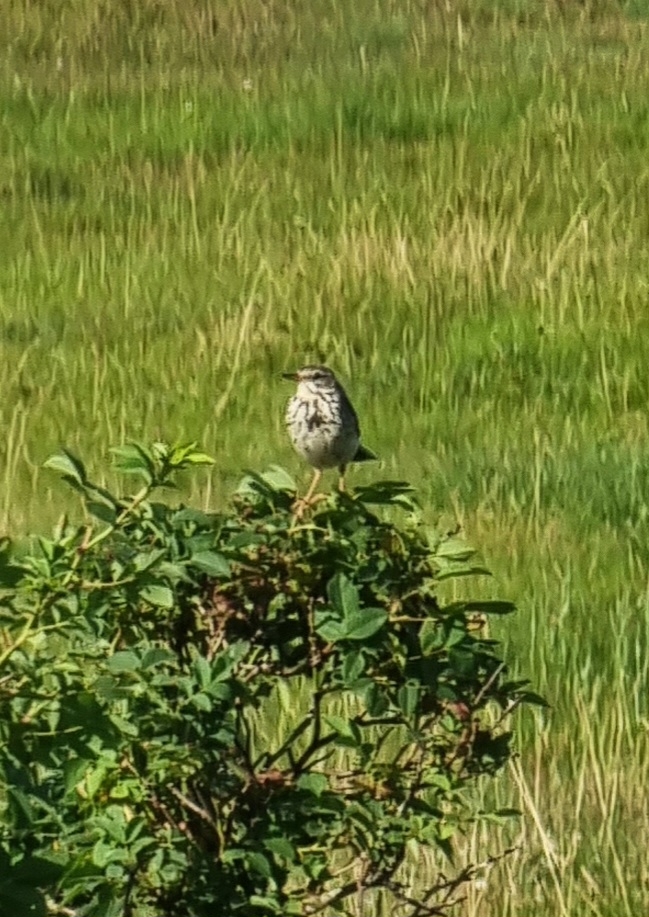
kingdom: Animalia
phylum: Chordata
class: Aves
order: Passeriformes
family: Motacillidae
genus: Anthus
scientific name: Anthus pratensis
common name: Engpiber
